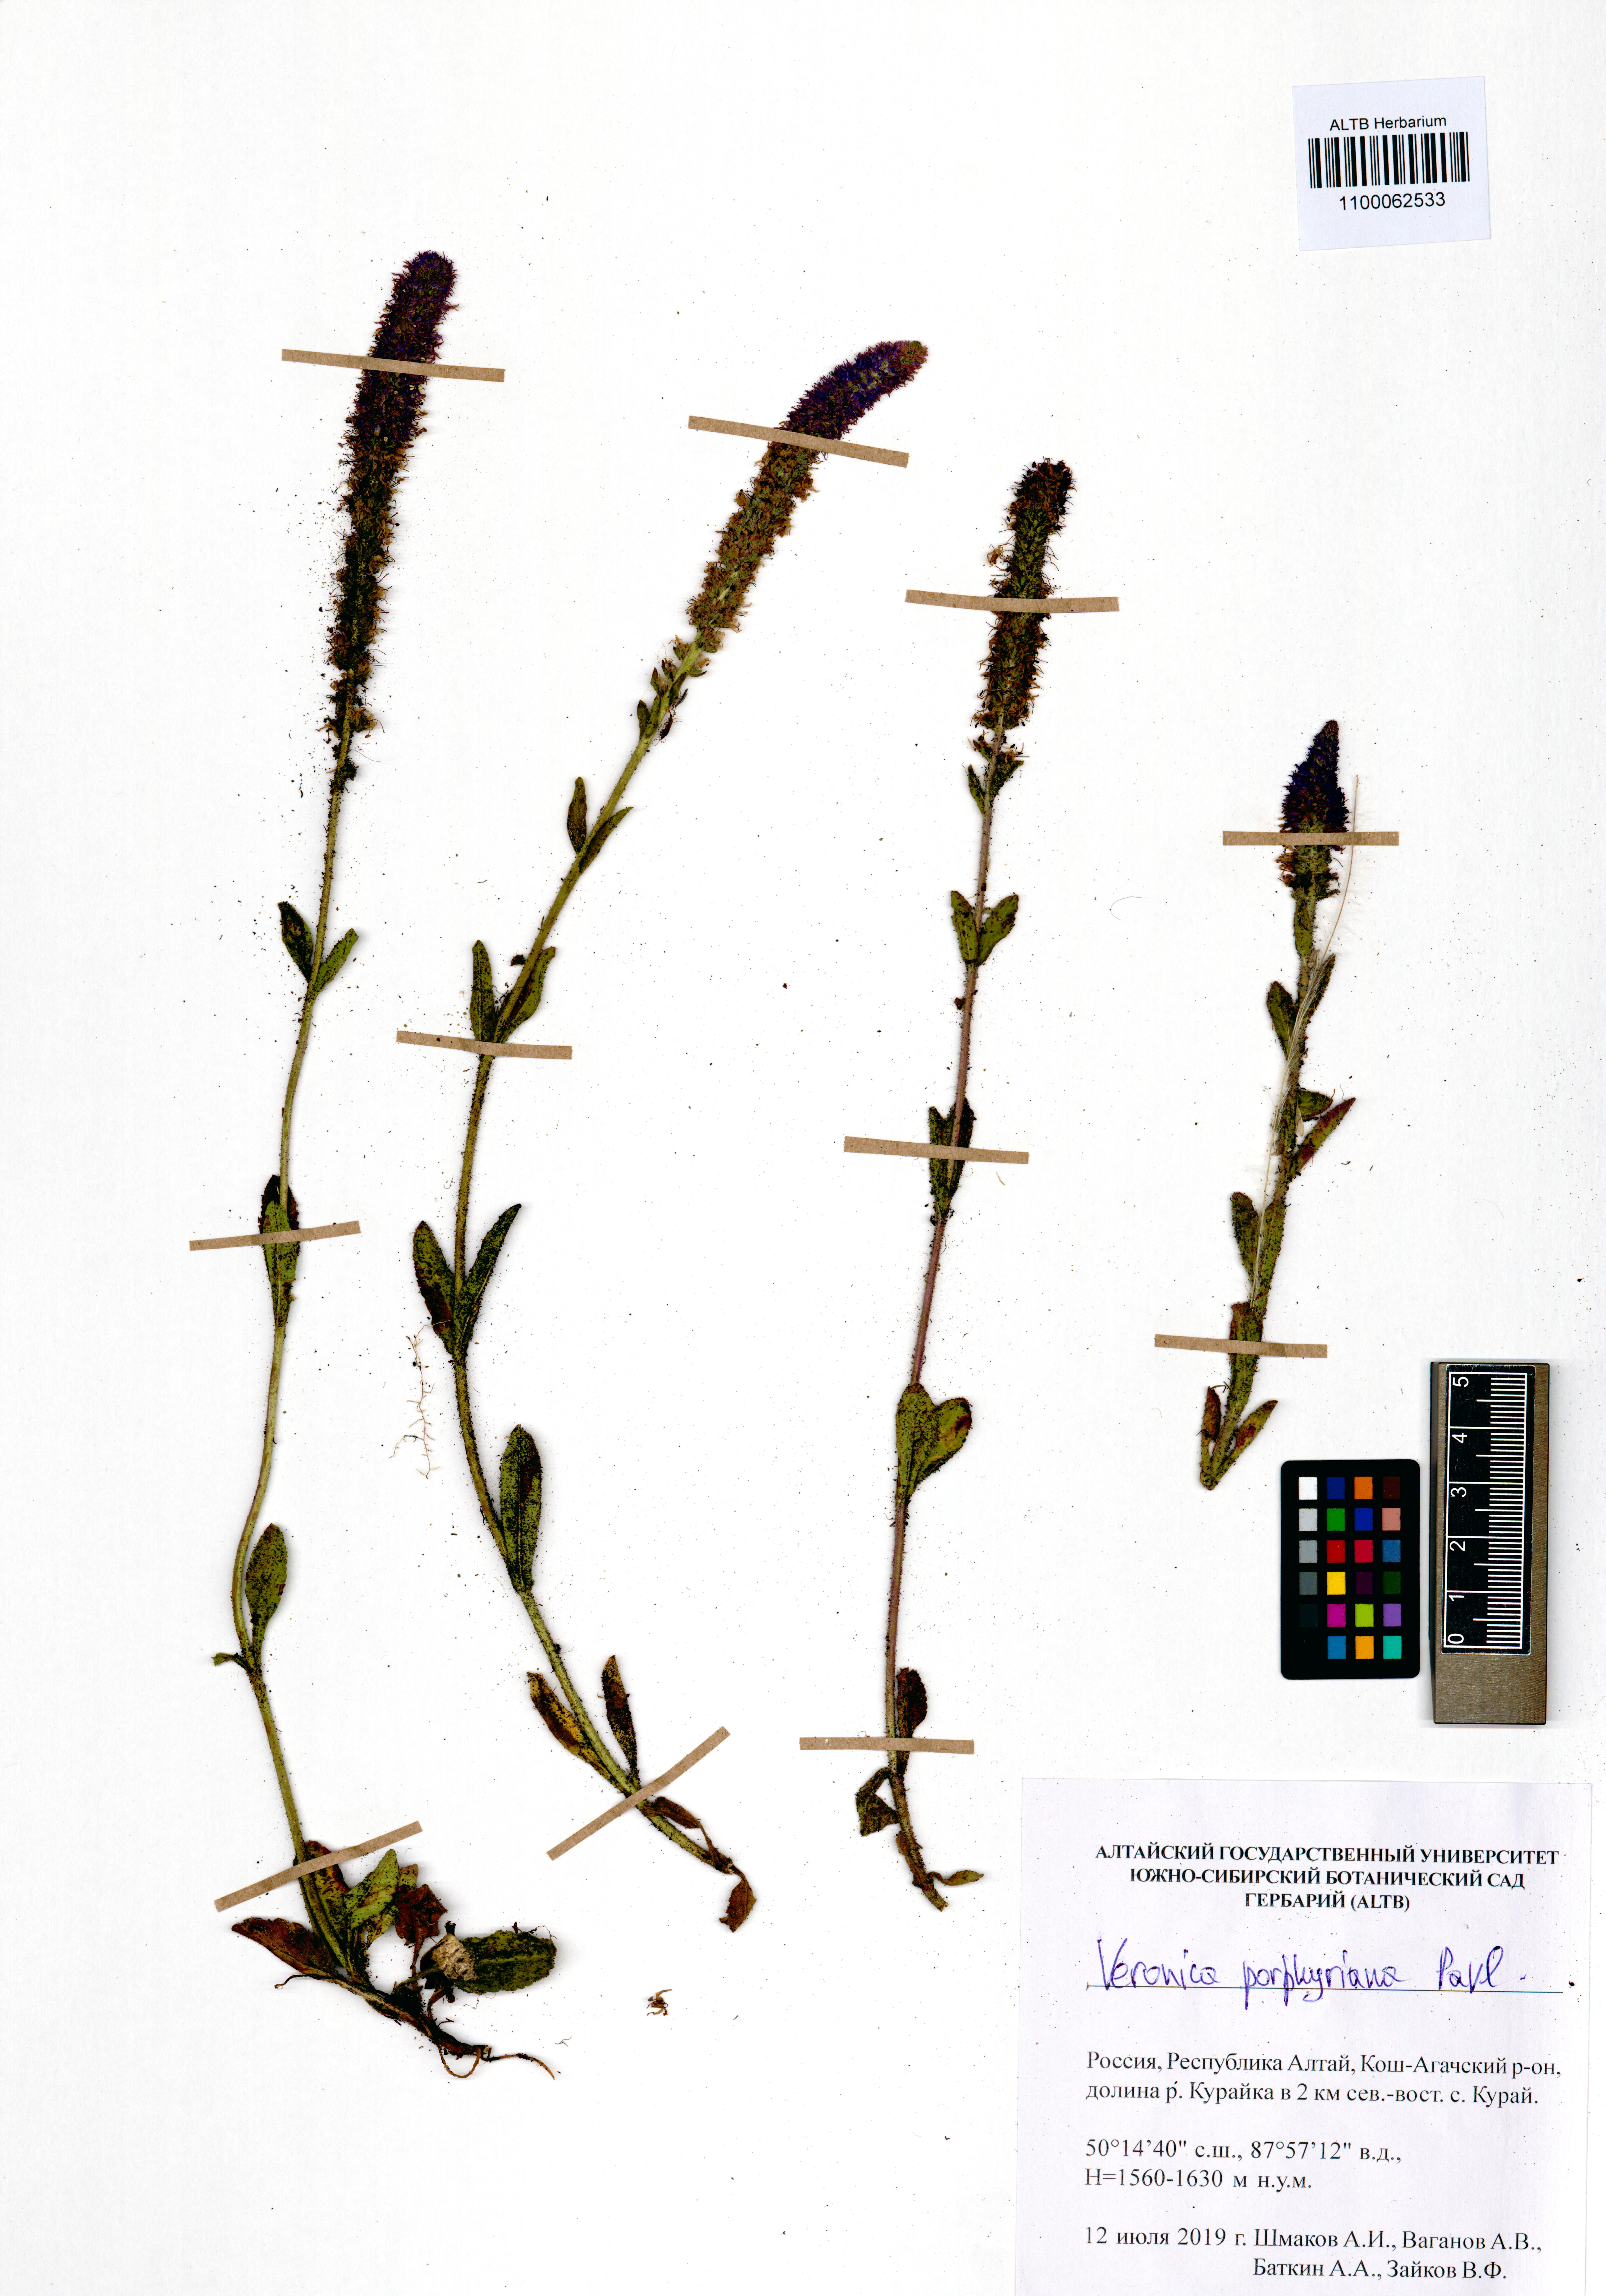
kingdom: Plantae
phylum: Tracheophyta
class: Magnoliopsida
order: Lamiales
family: Plantaginaceae
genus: Veronica
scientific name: Veronica porphyriana
